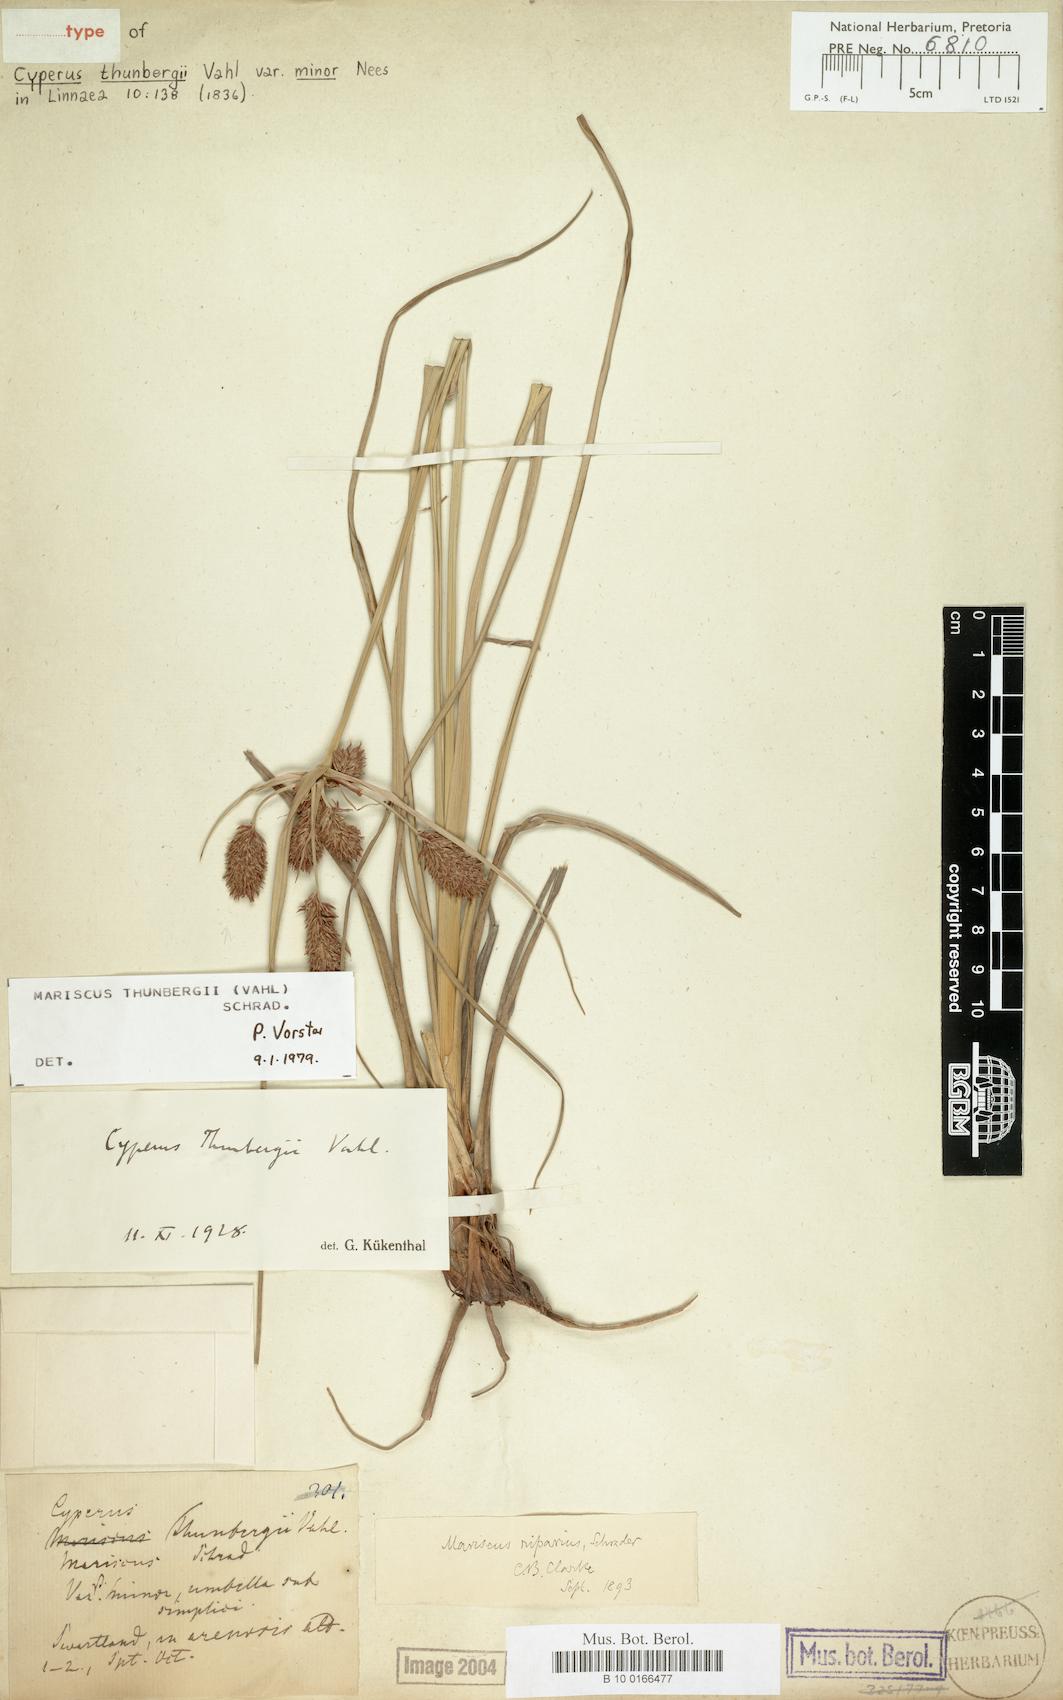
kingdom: Plantae
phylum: Tracheophyta
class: Liliopsida
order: Poales
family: Cyperaceae
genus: Cyperus
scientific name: Cyperus thunbergii
